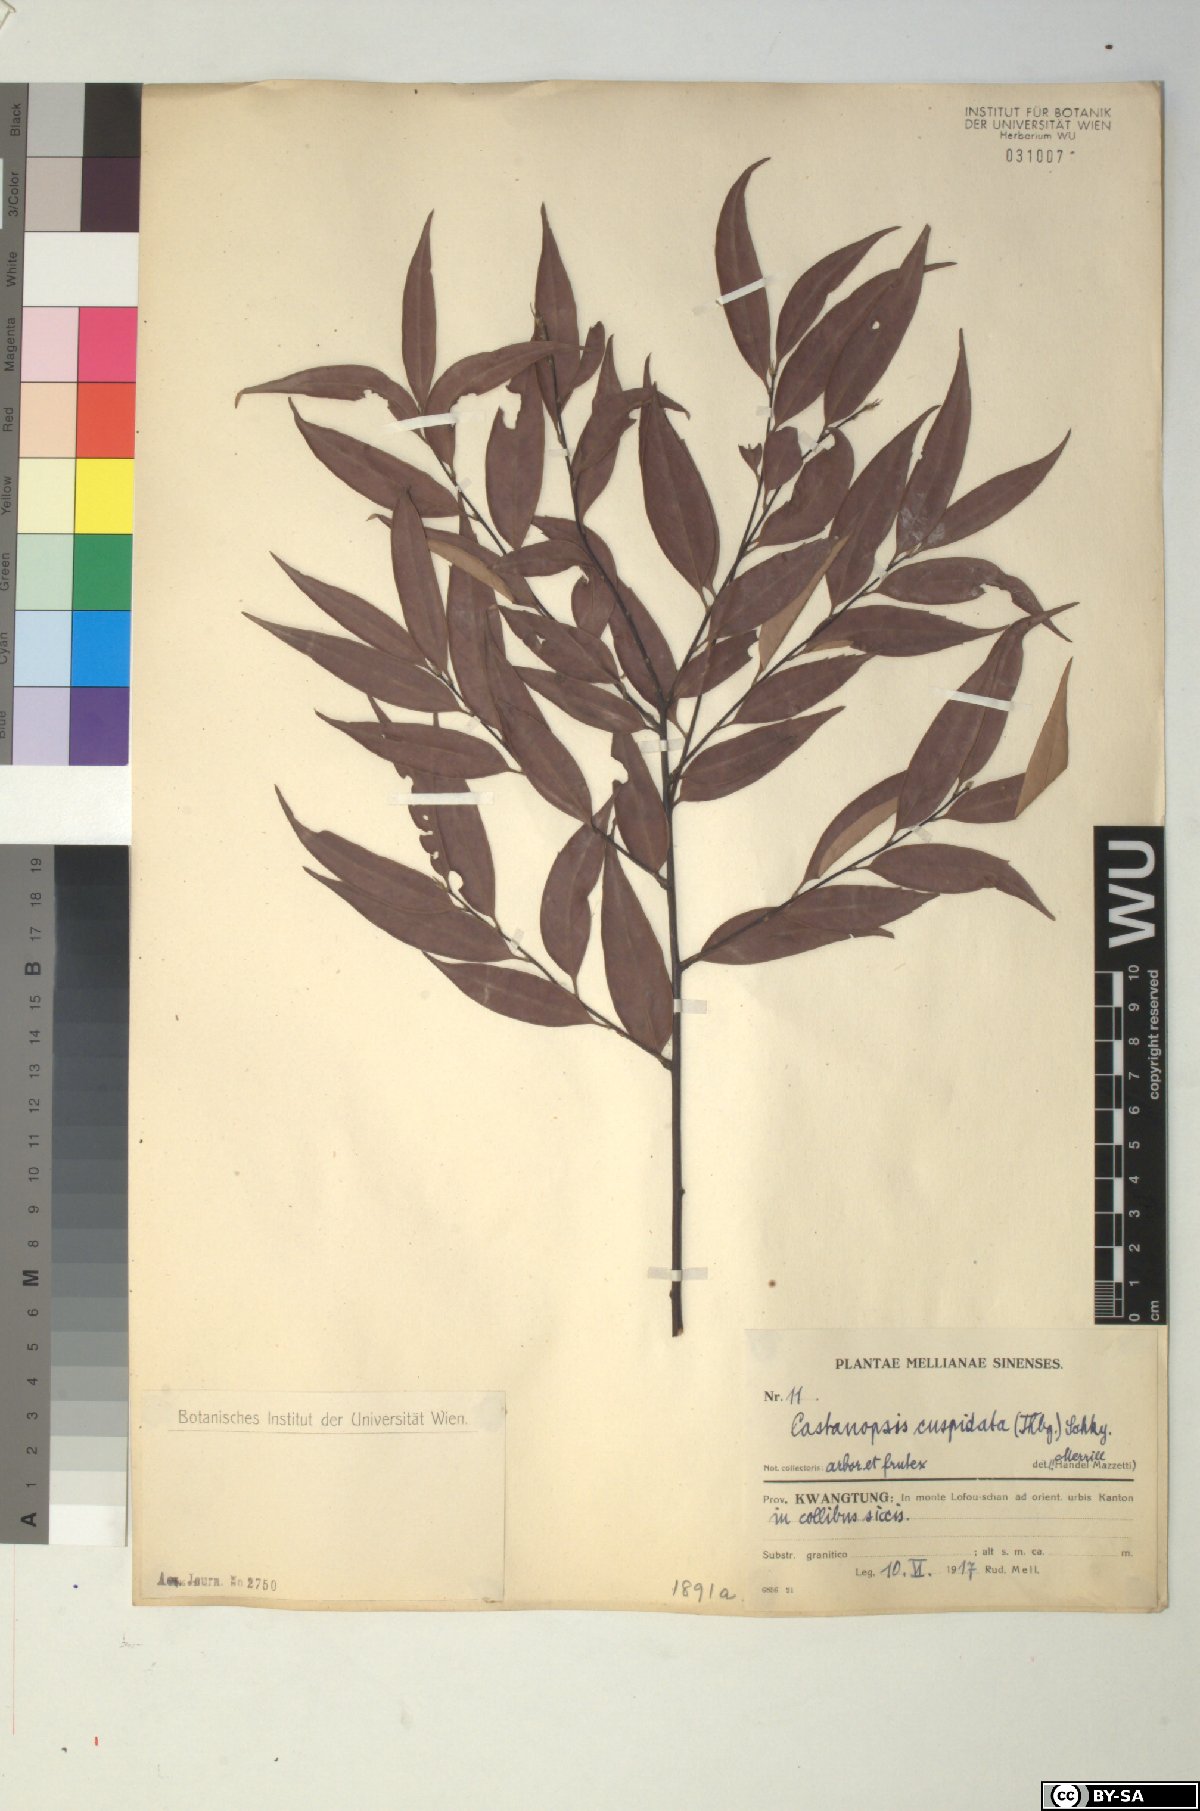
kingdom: Plantae
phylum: Tracheophyta
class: Magnoliopsida
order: Fagales
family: Fagaceae
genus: Castanopsis
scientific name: Castanopsis cuspidata
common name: Japanese chinquapin
